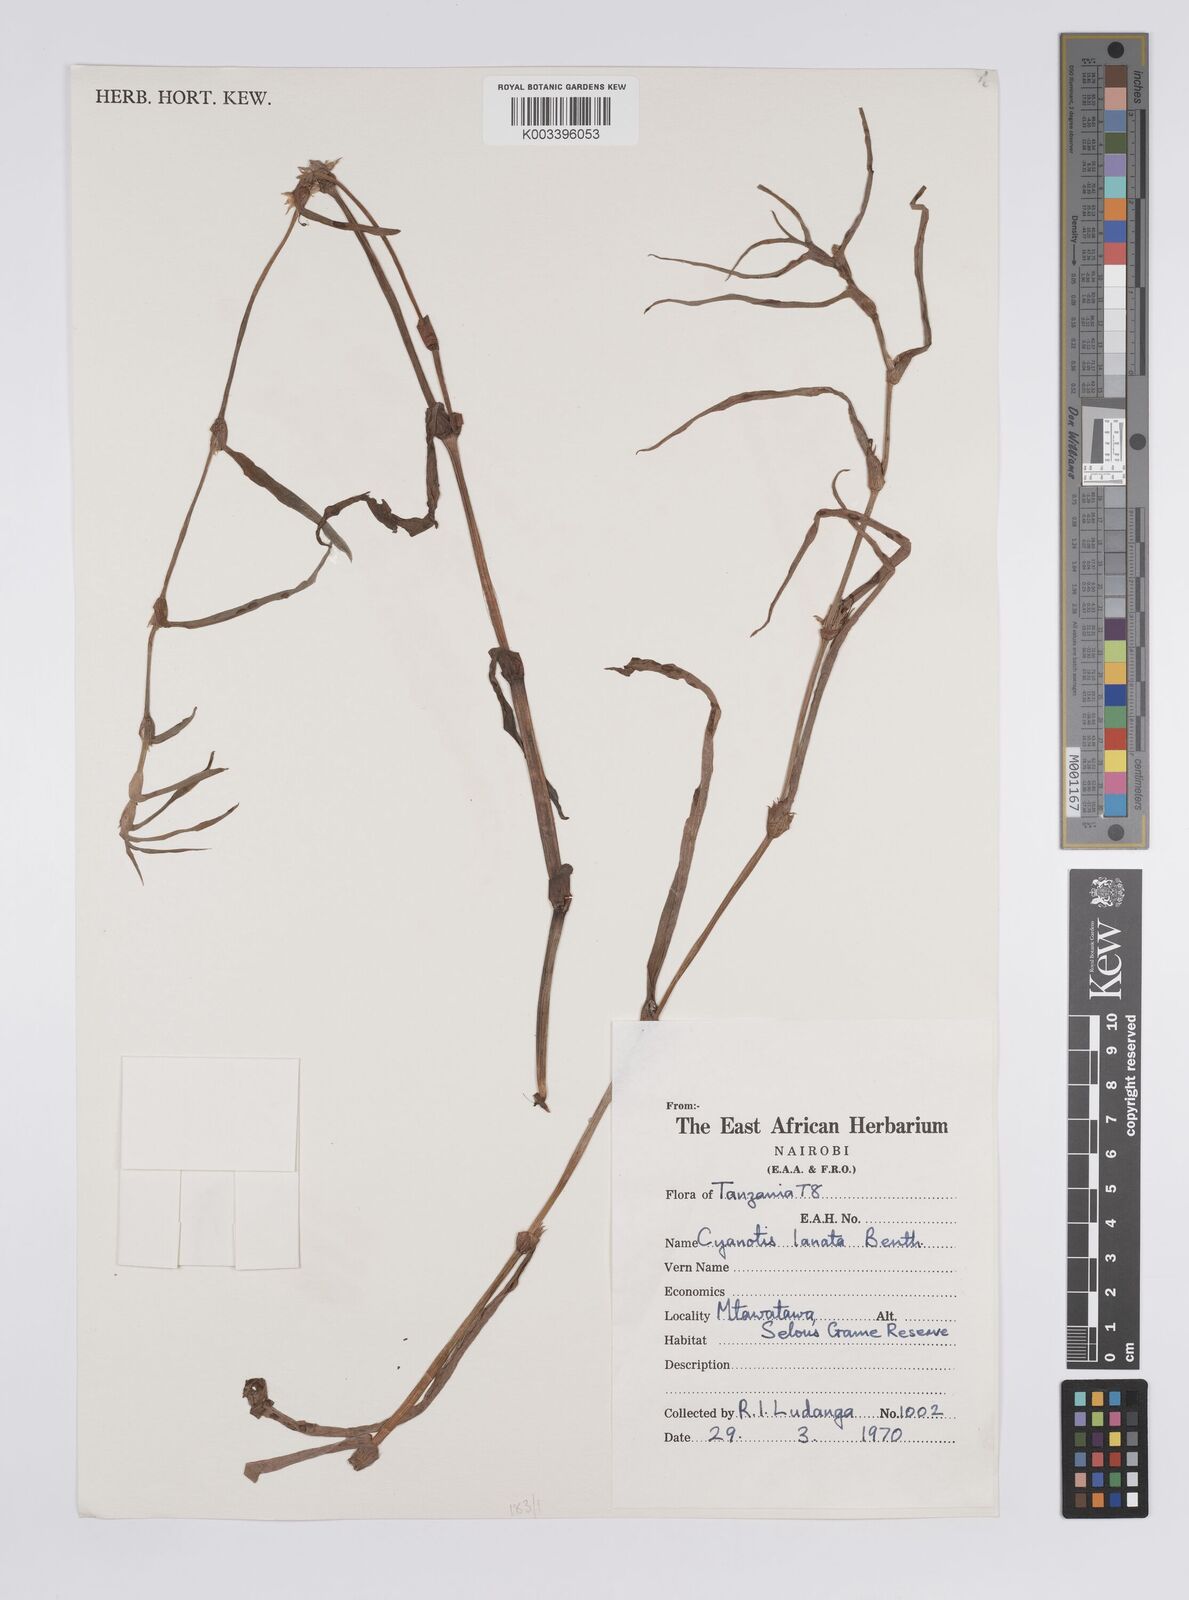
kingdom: Plantae
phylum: Tracheophyta
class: Liliopsida
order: Commelinales
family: Commelinaceae
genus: Cyanotis
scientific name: Cyanotis axillaris
